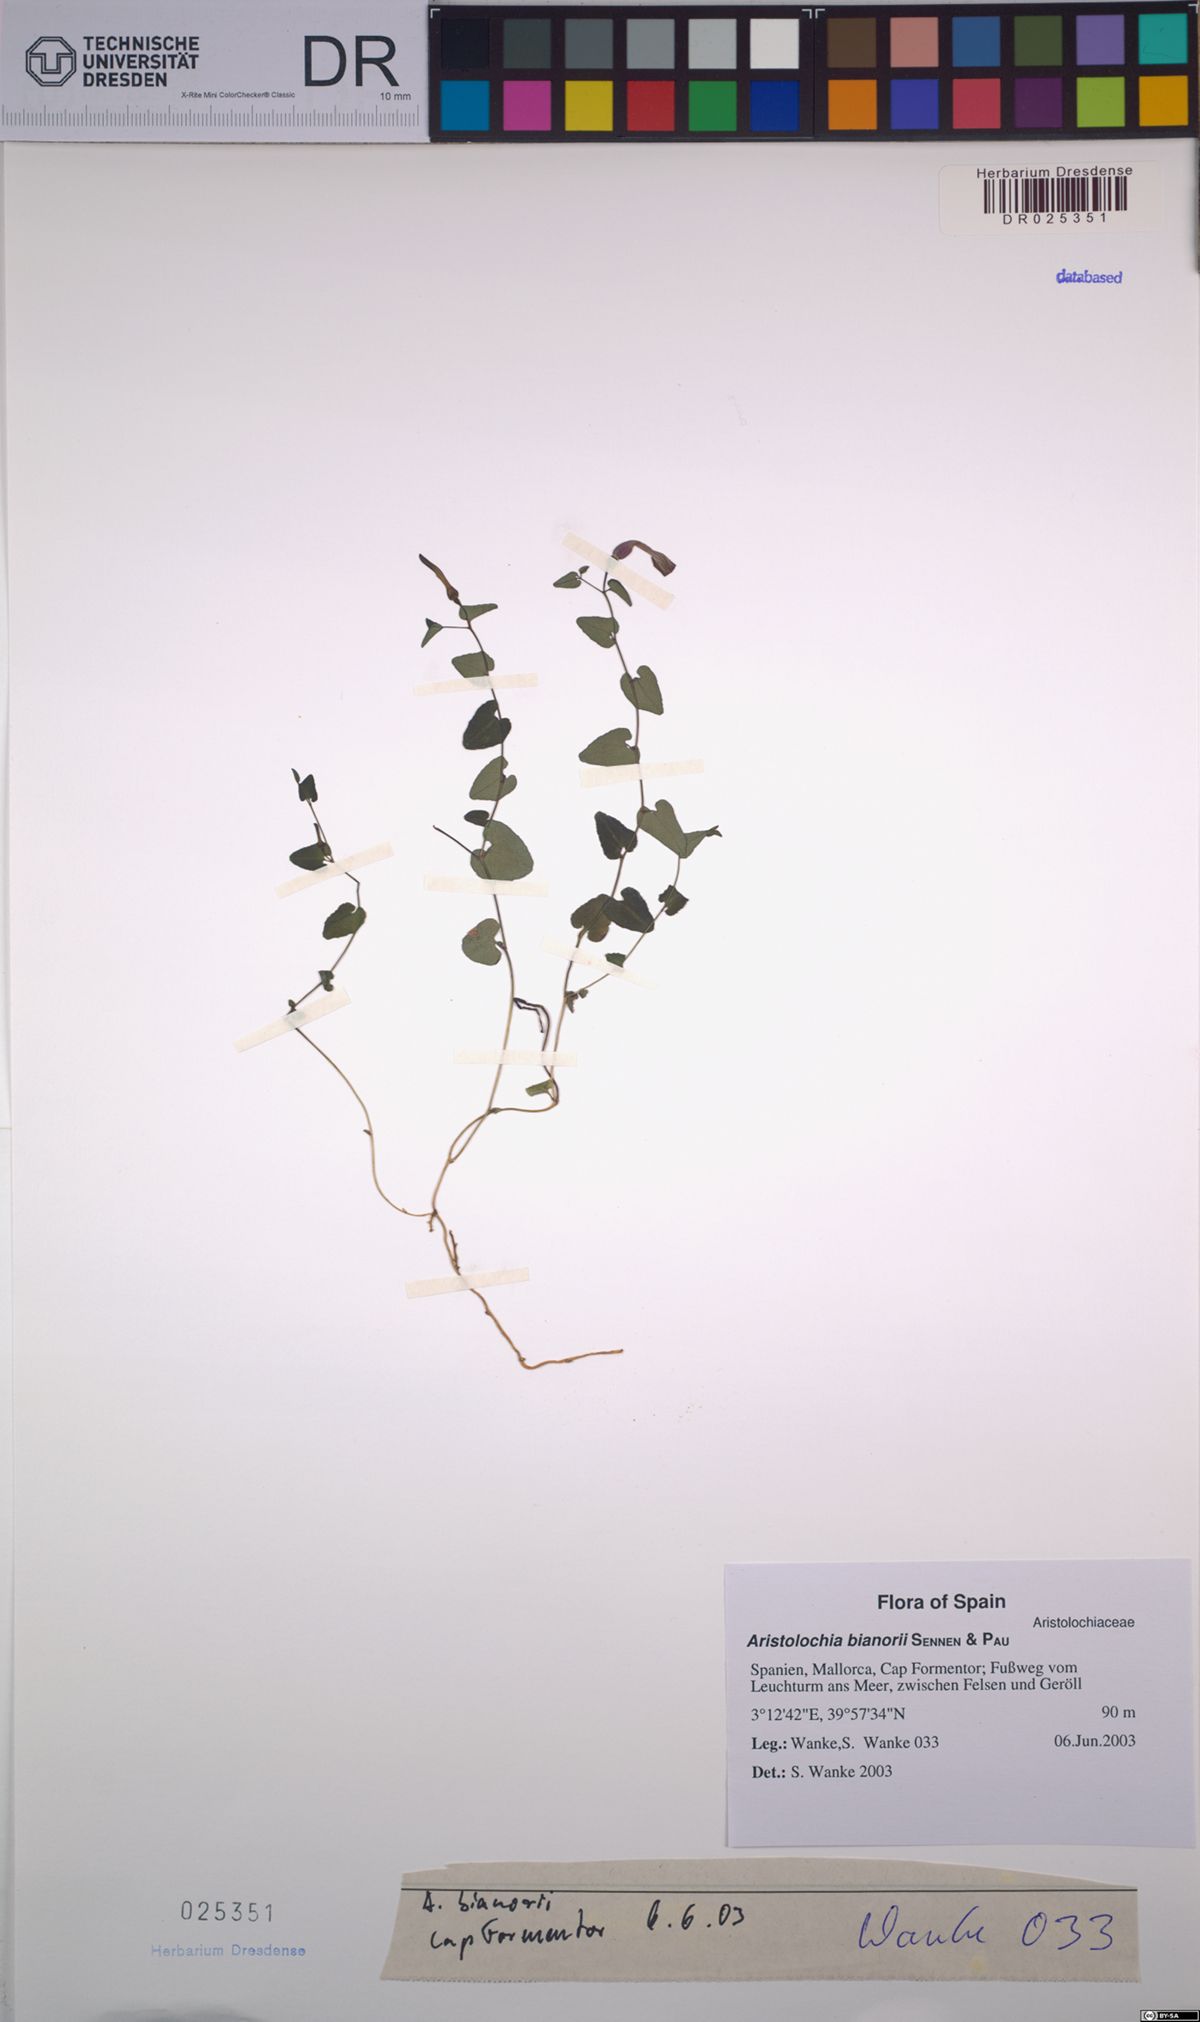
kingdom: Plantae
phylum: Tracheophyta
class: Magnoliopsida
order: Piperales
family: Aristolochiaceae
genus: Aristolochia
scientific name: Aristolochia bianorii
